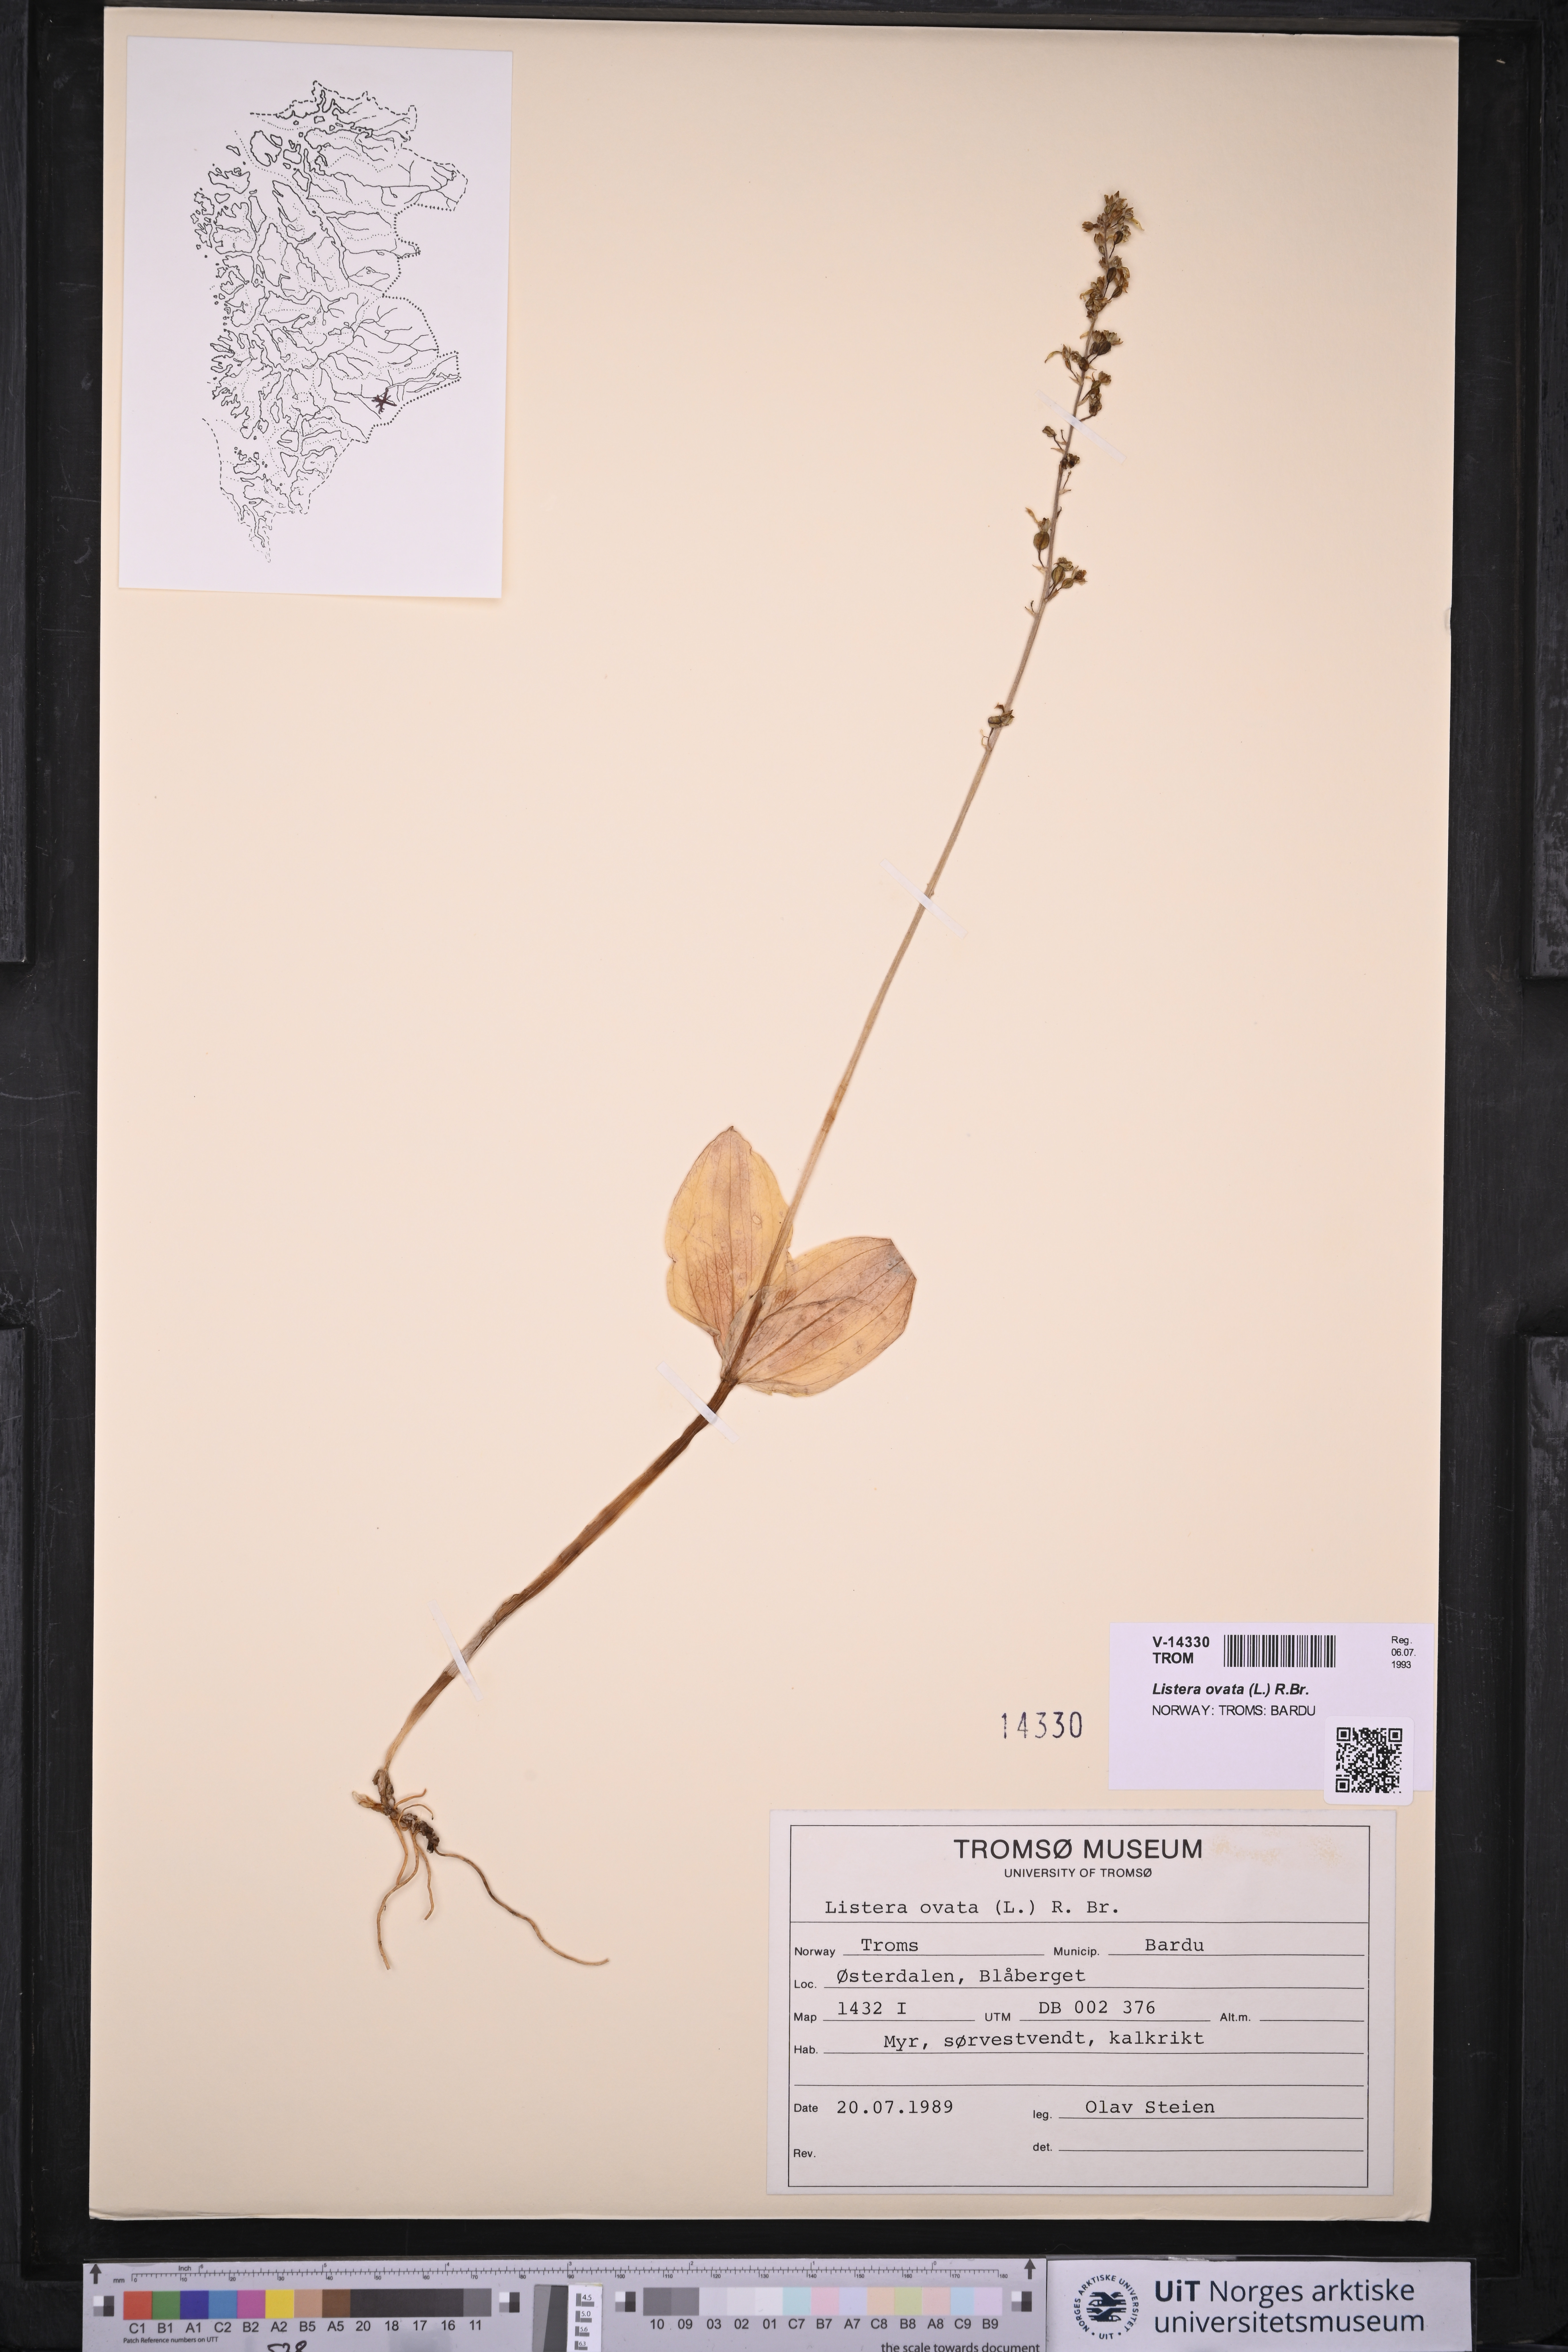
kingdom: Plantae
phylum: Tracheophyta
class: Liliopsida
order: Asparagales
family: Orchidaceae
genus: Neottia
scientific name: Neottia ovata
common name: Common twayblade
